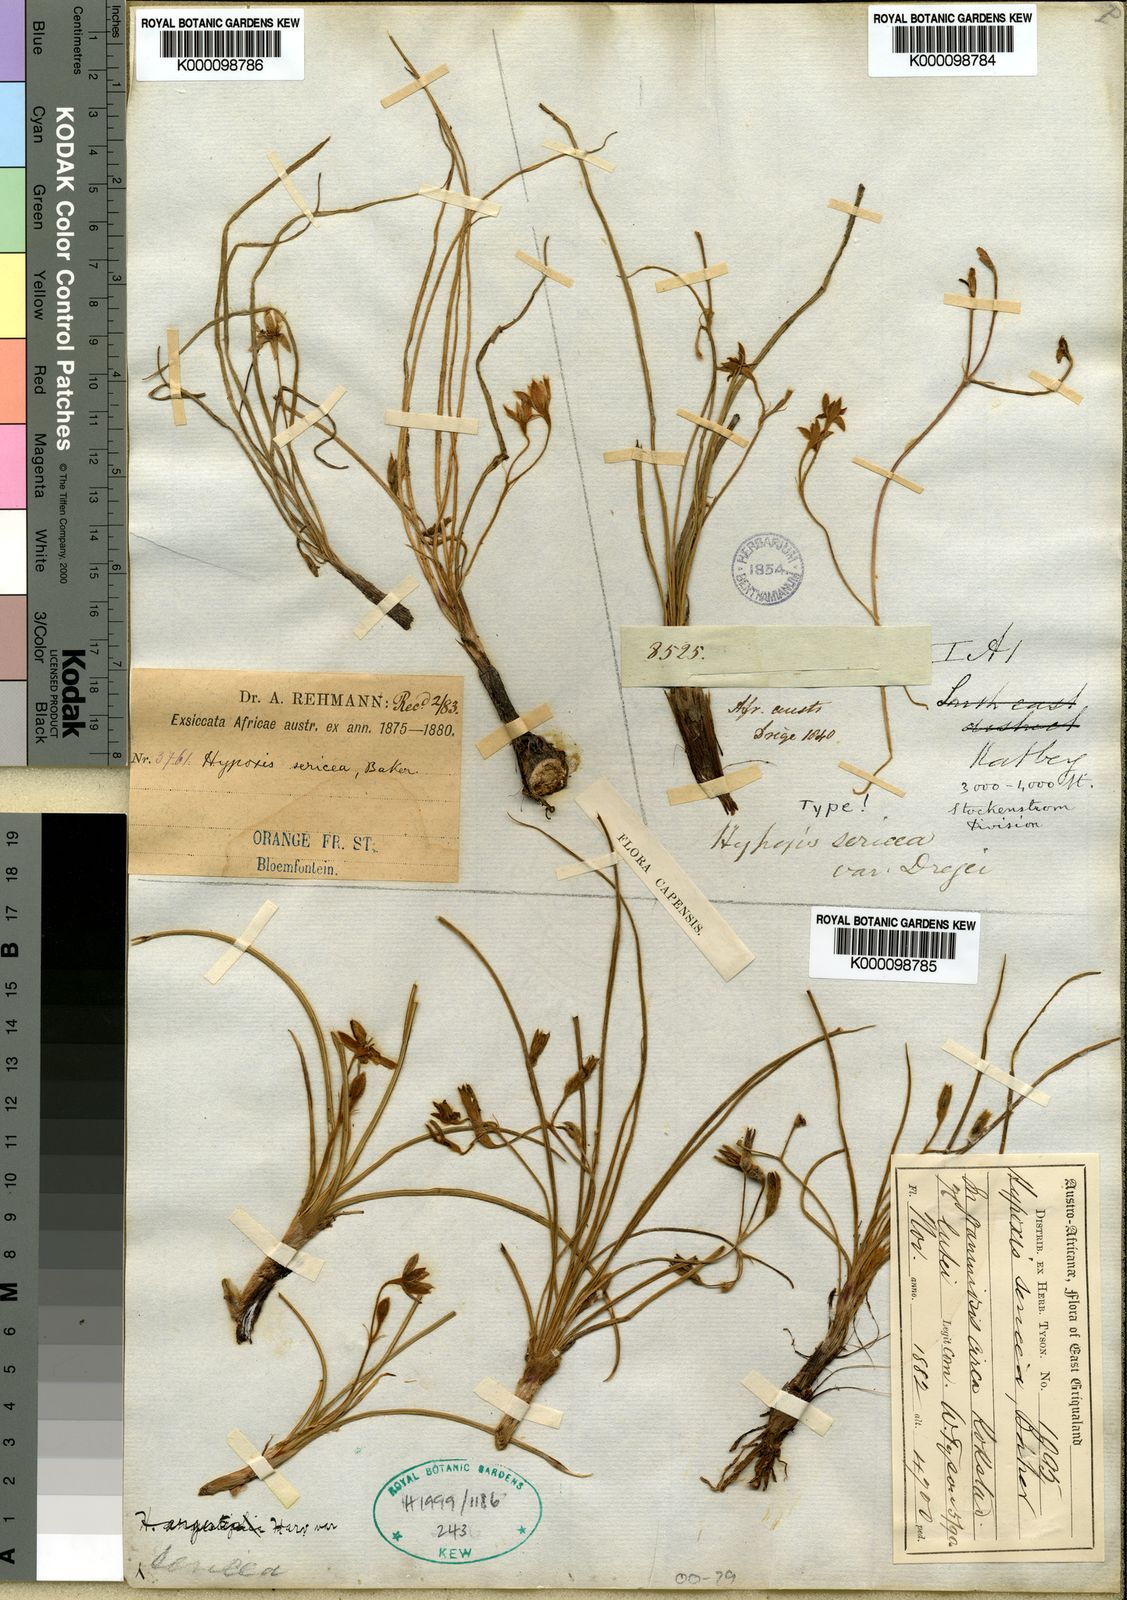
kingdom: Plantae
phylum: Tracheophyta
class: Liliopsida
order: Asparagales
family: Hypoxidaceae
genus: Hypoxis
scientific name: Hypoxis argentea
